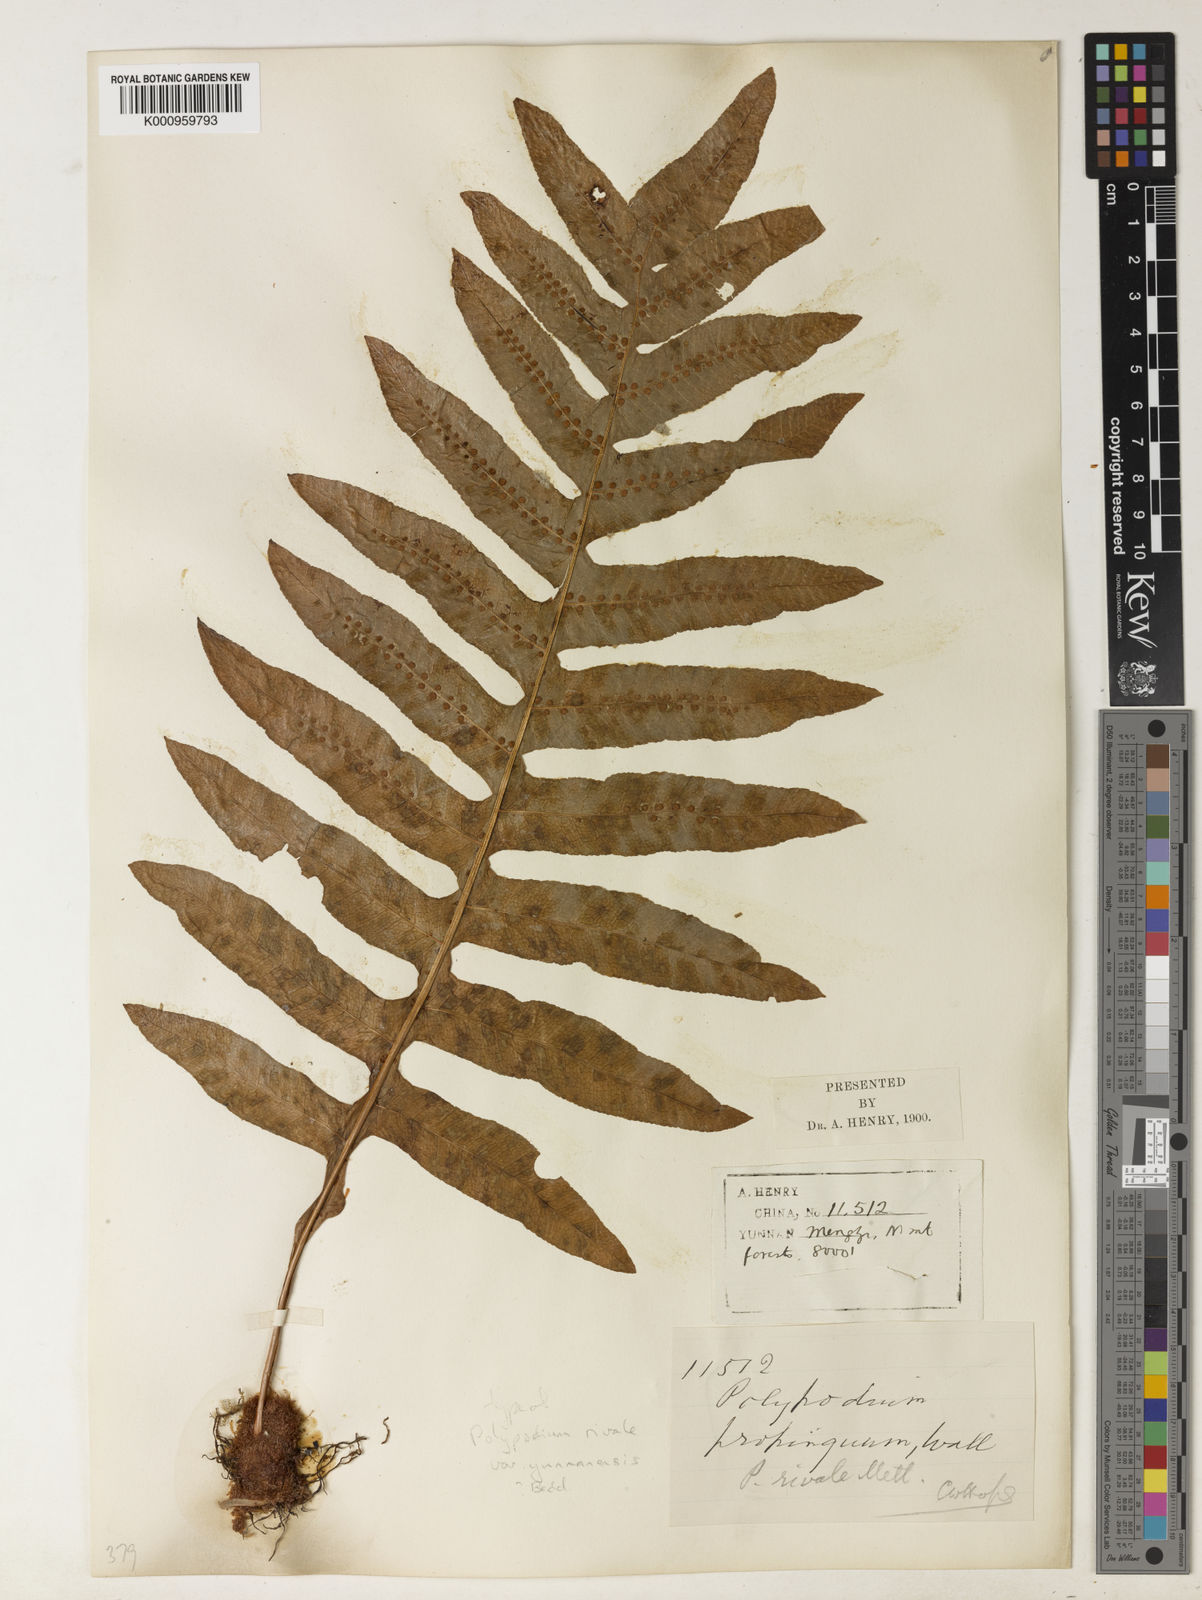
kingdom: Plantae
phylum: Tracheophyta
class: Polypodiopsida
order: Polypodiales
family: Polypodiaceae
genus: Drynaria
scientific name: Drynaria delavayi
